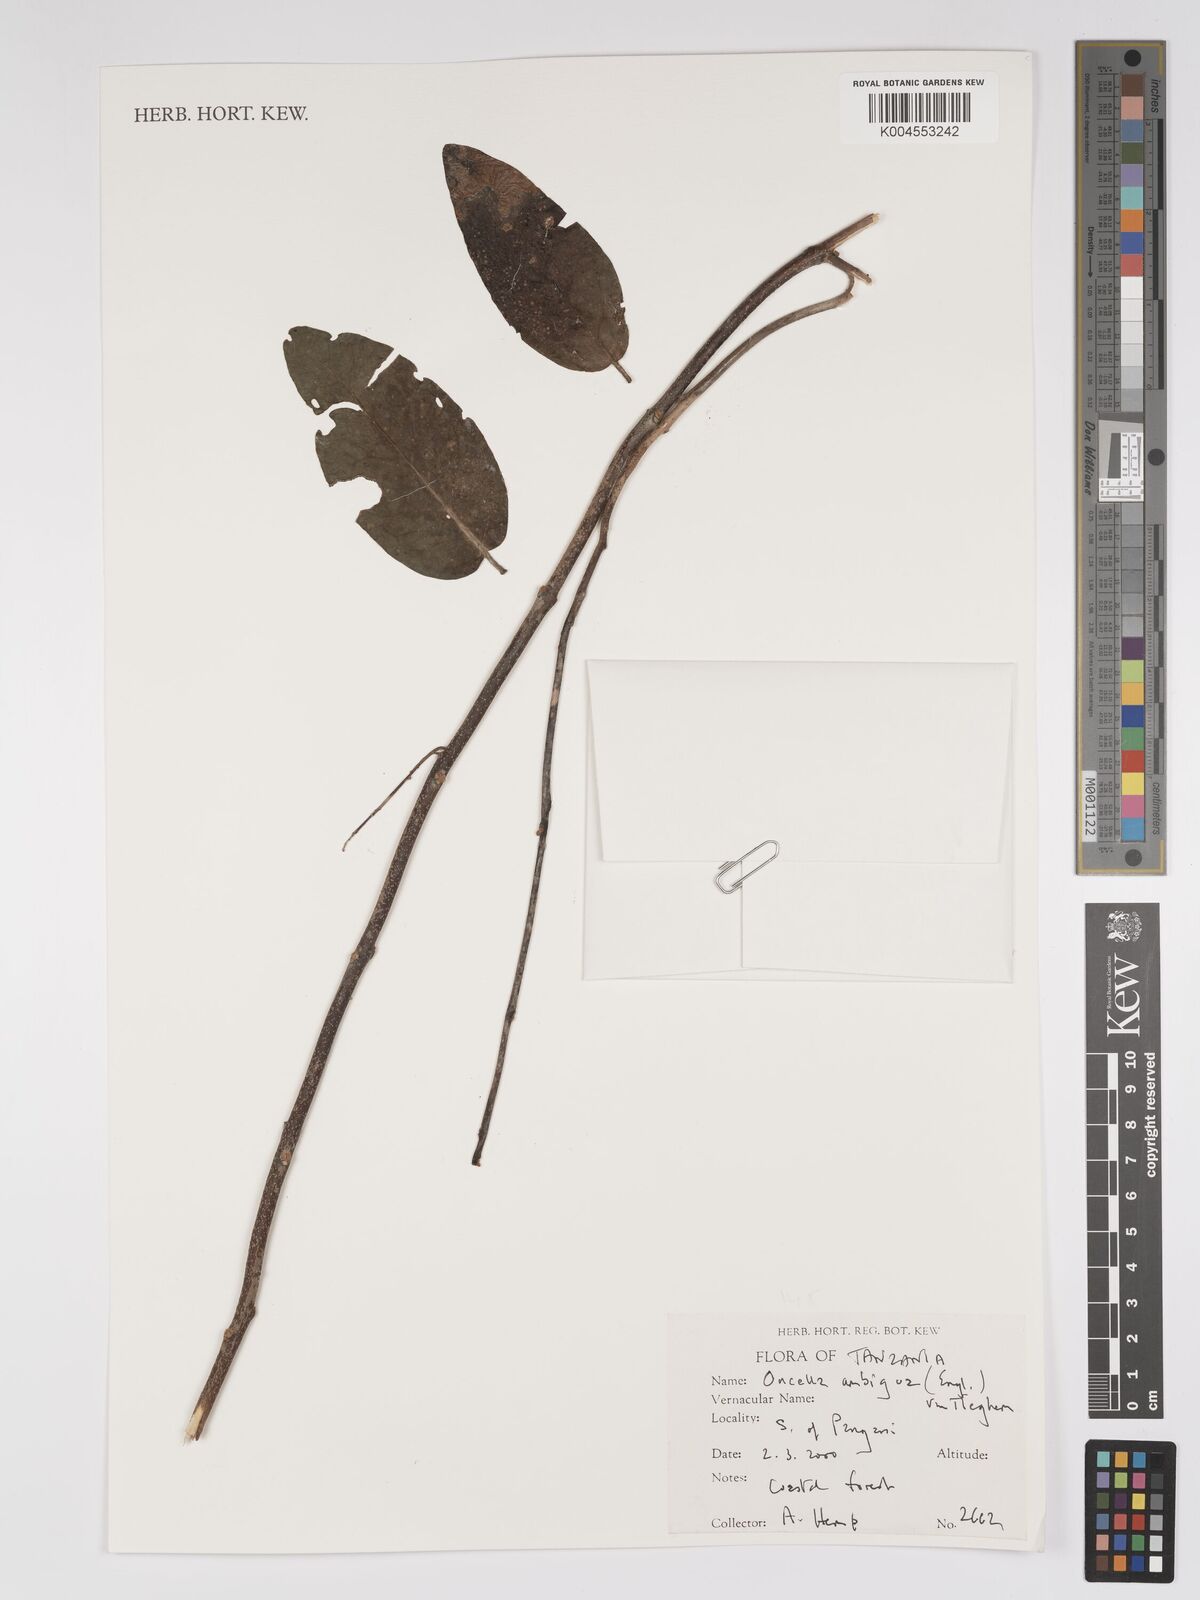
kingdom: Plantae
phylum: Tracheophyta
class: Magnoliopsida
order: Santalales
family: Loranthaceae
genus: Oncella
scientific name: Oncella ambigua
